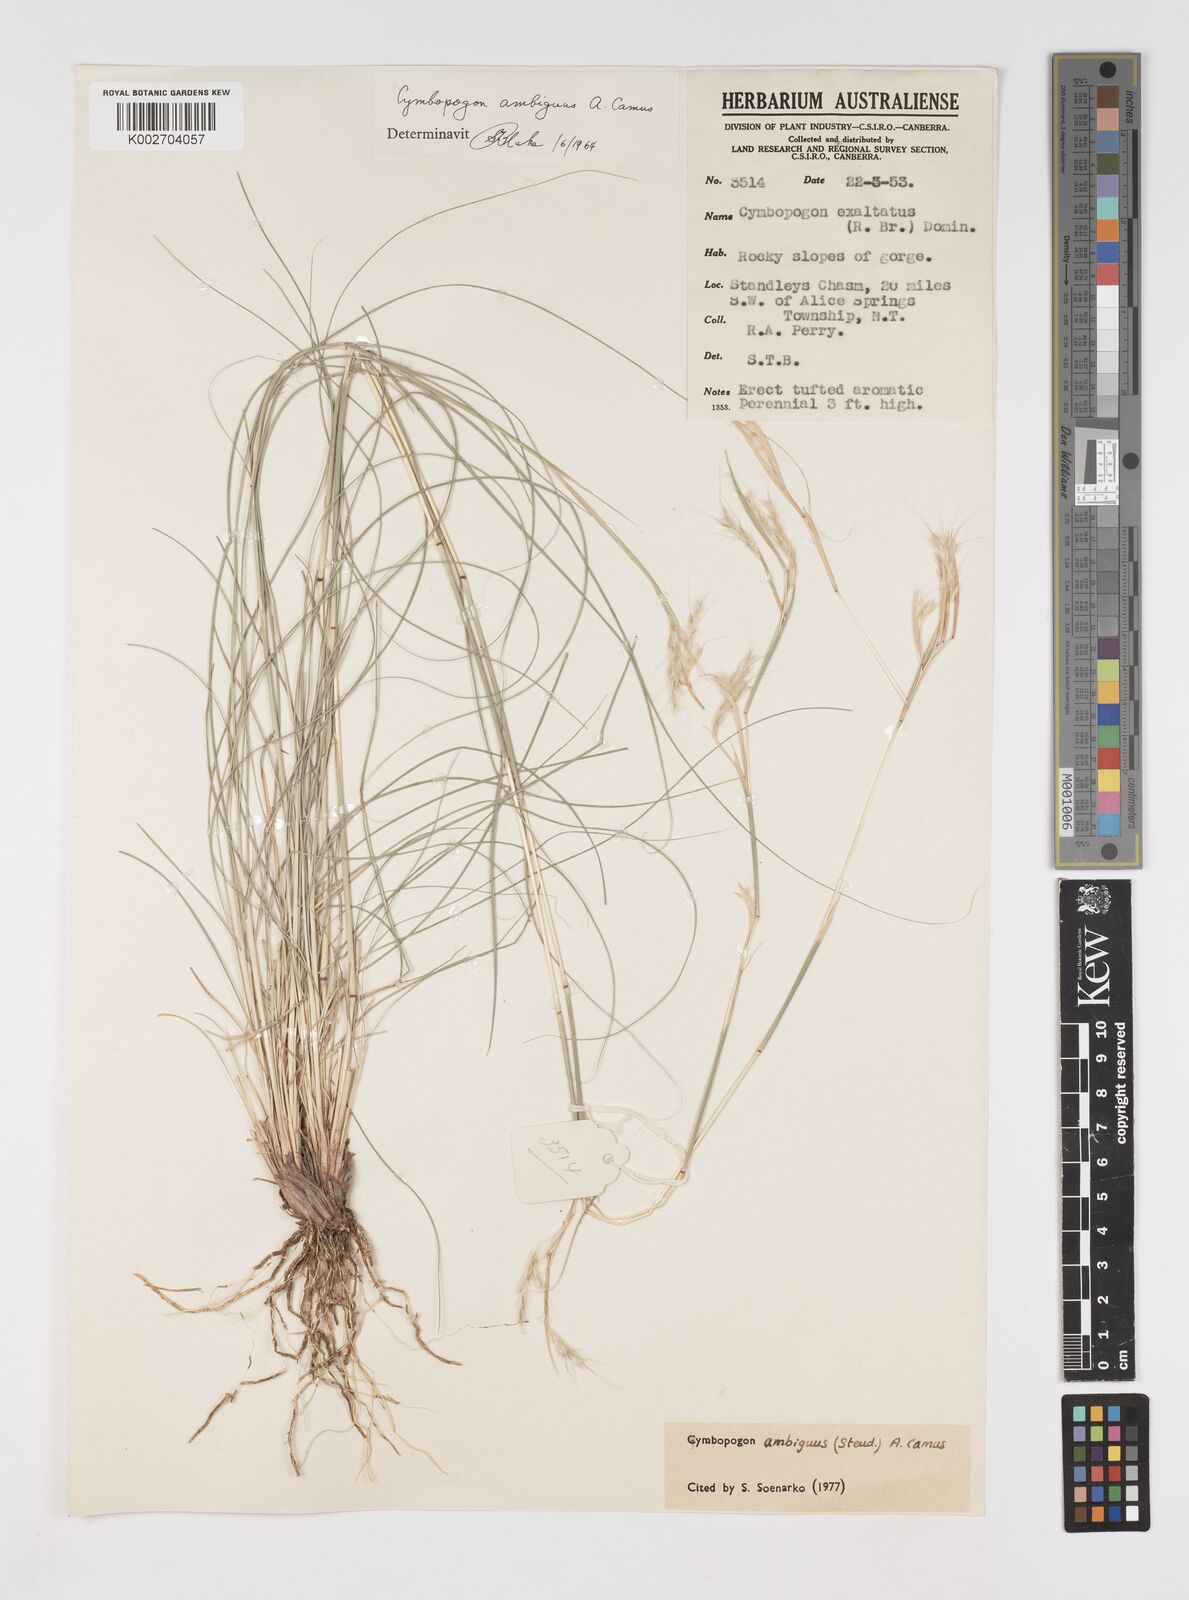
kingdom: Plantae
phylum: Tracheophyta
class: Liliopsida
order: Poales
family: Poaceae
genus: Cymbopogon
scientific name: Cymbopogon ambiguus
